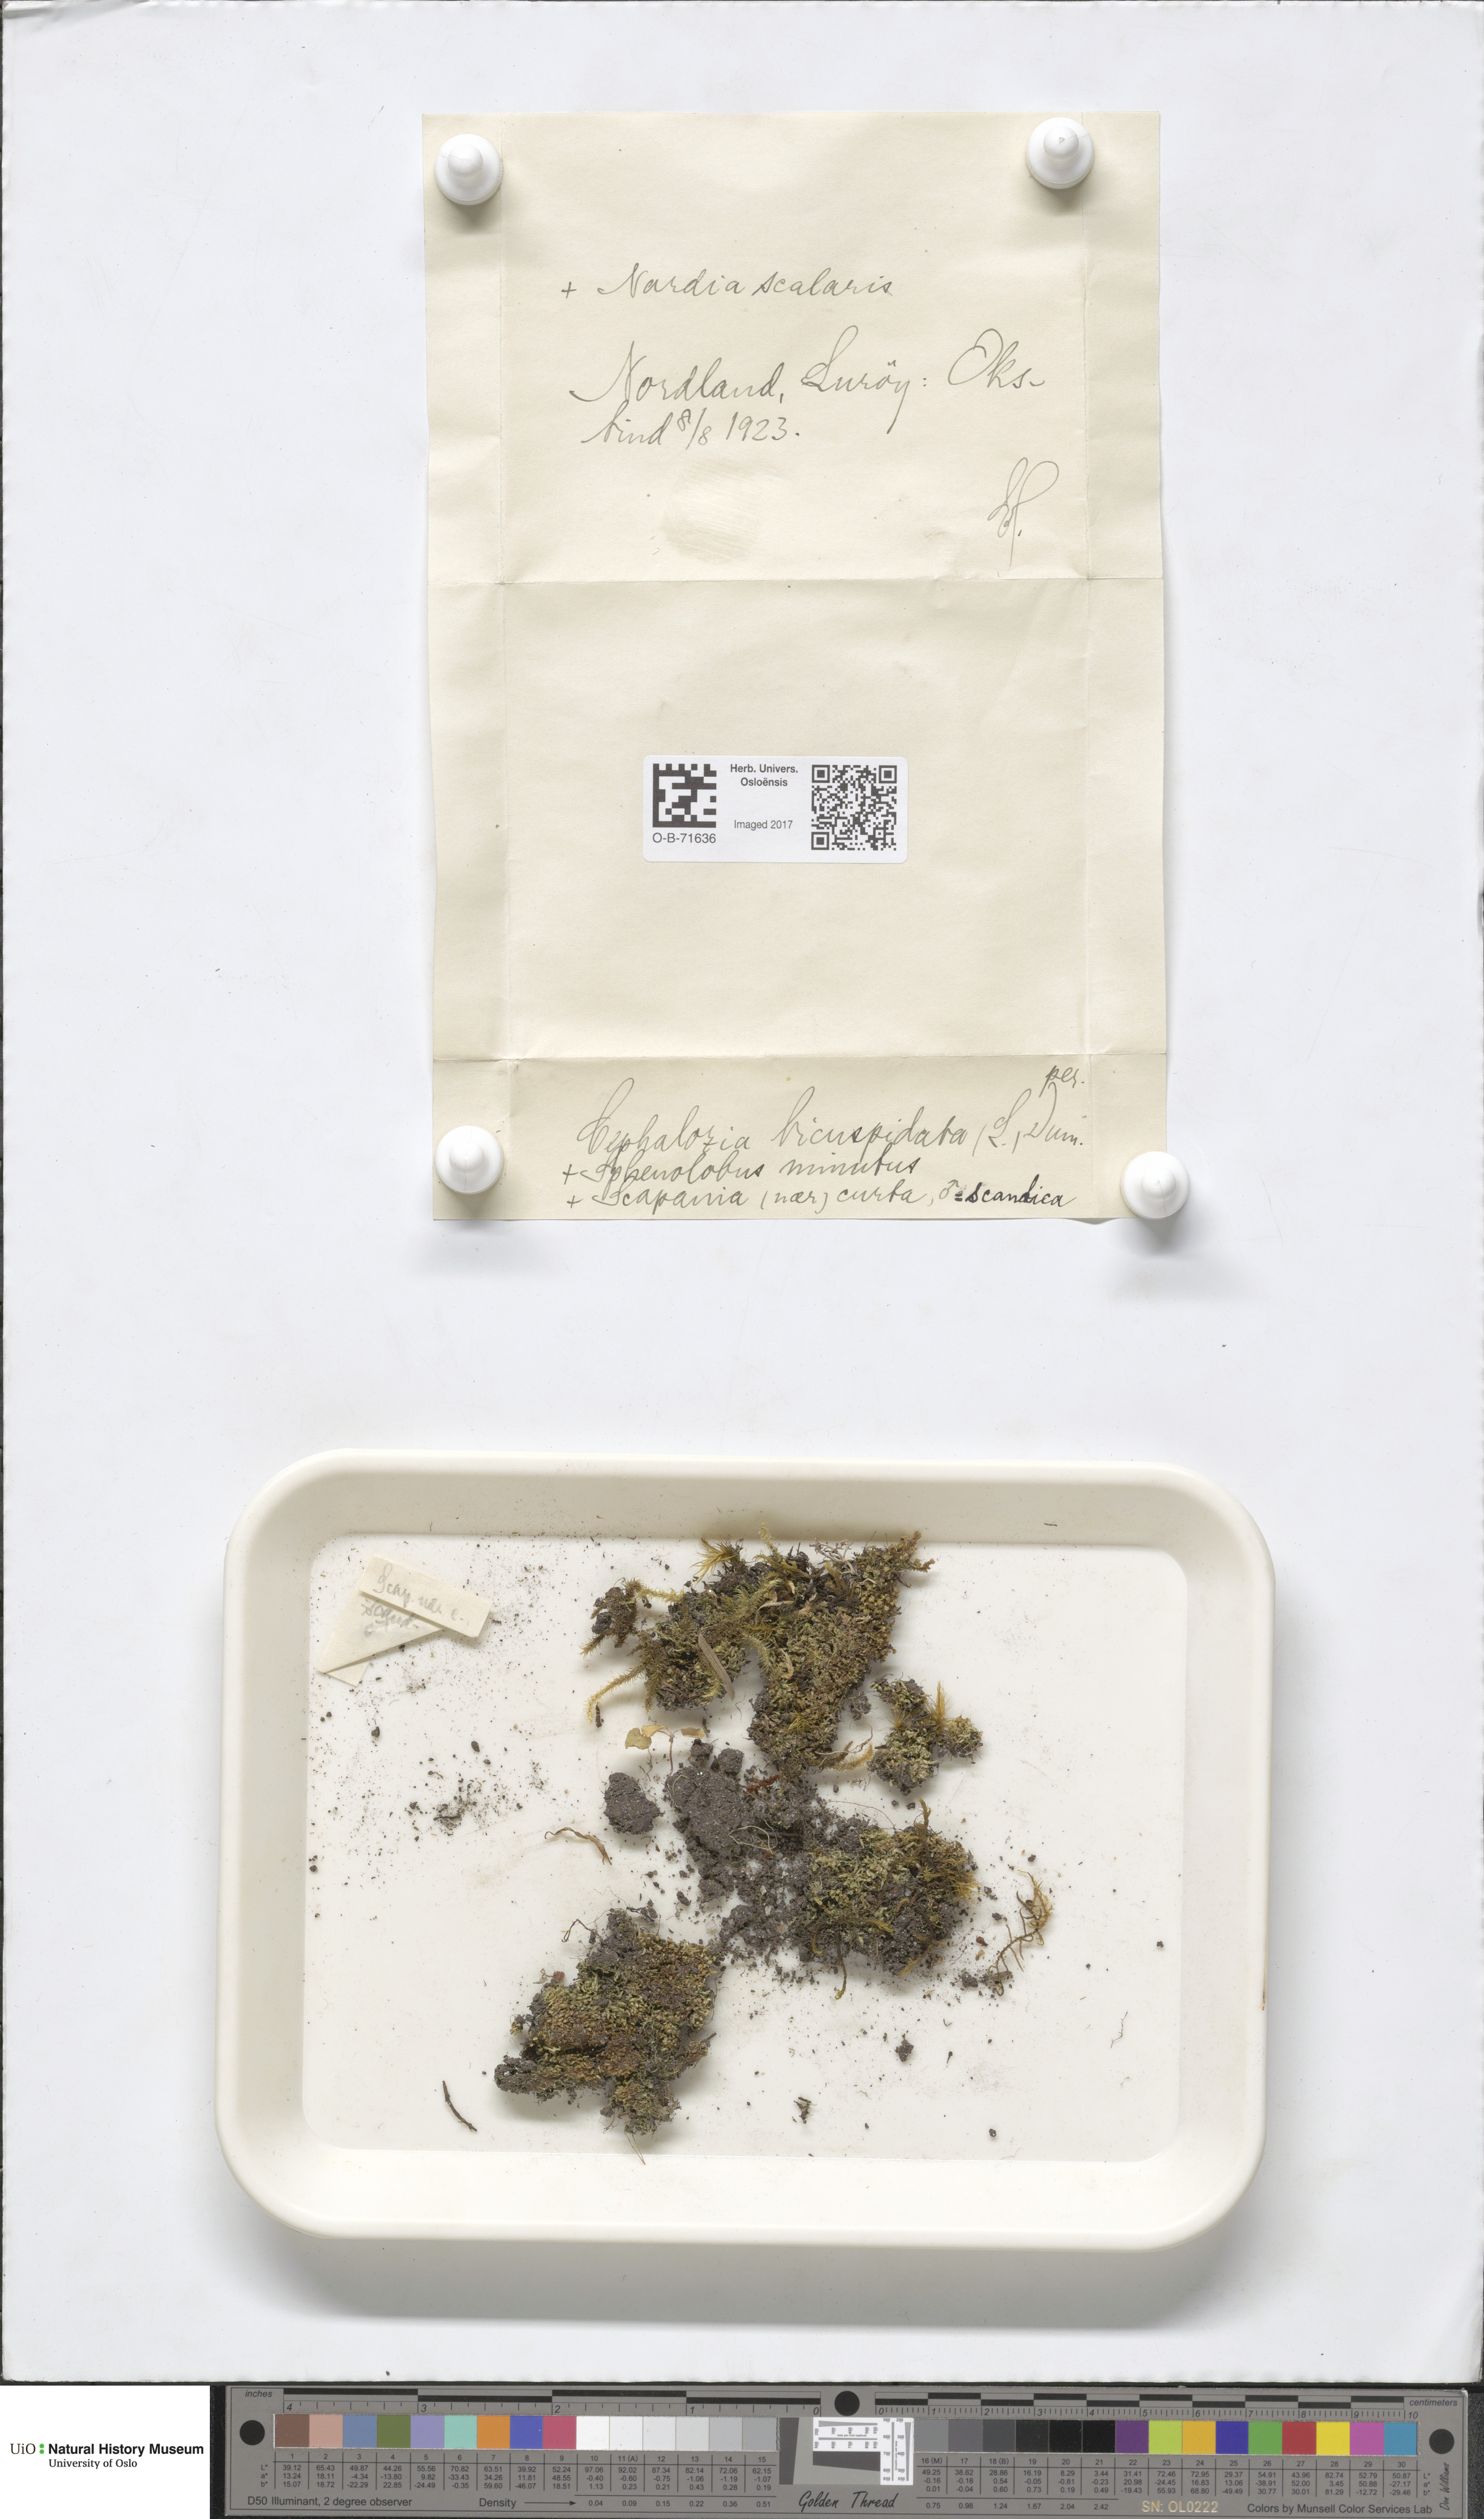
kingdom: Plantae
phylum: Marchantiophyta
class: Jungermanniopsida
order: Jungermanniales
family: Cephaloziaceae
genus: Cephalozia
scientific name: Cephalozia bicuspidata
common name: Two-horned pincerwort
